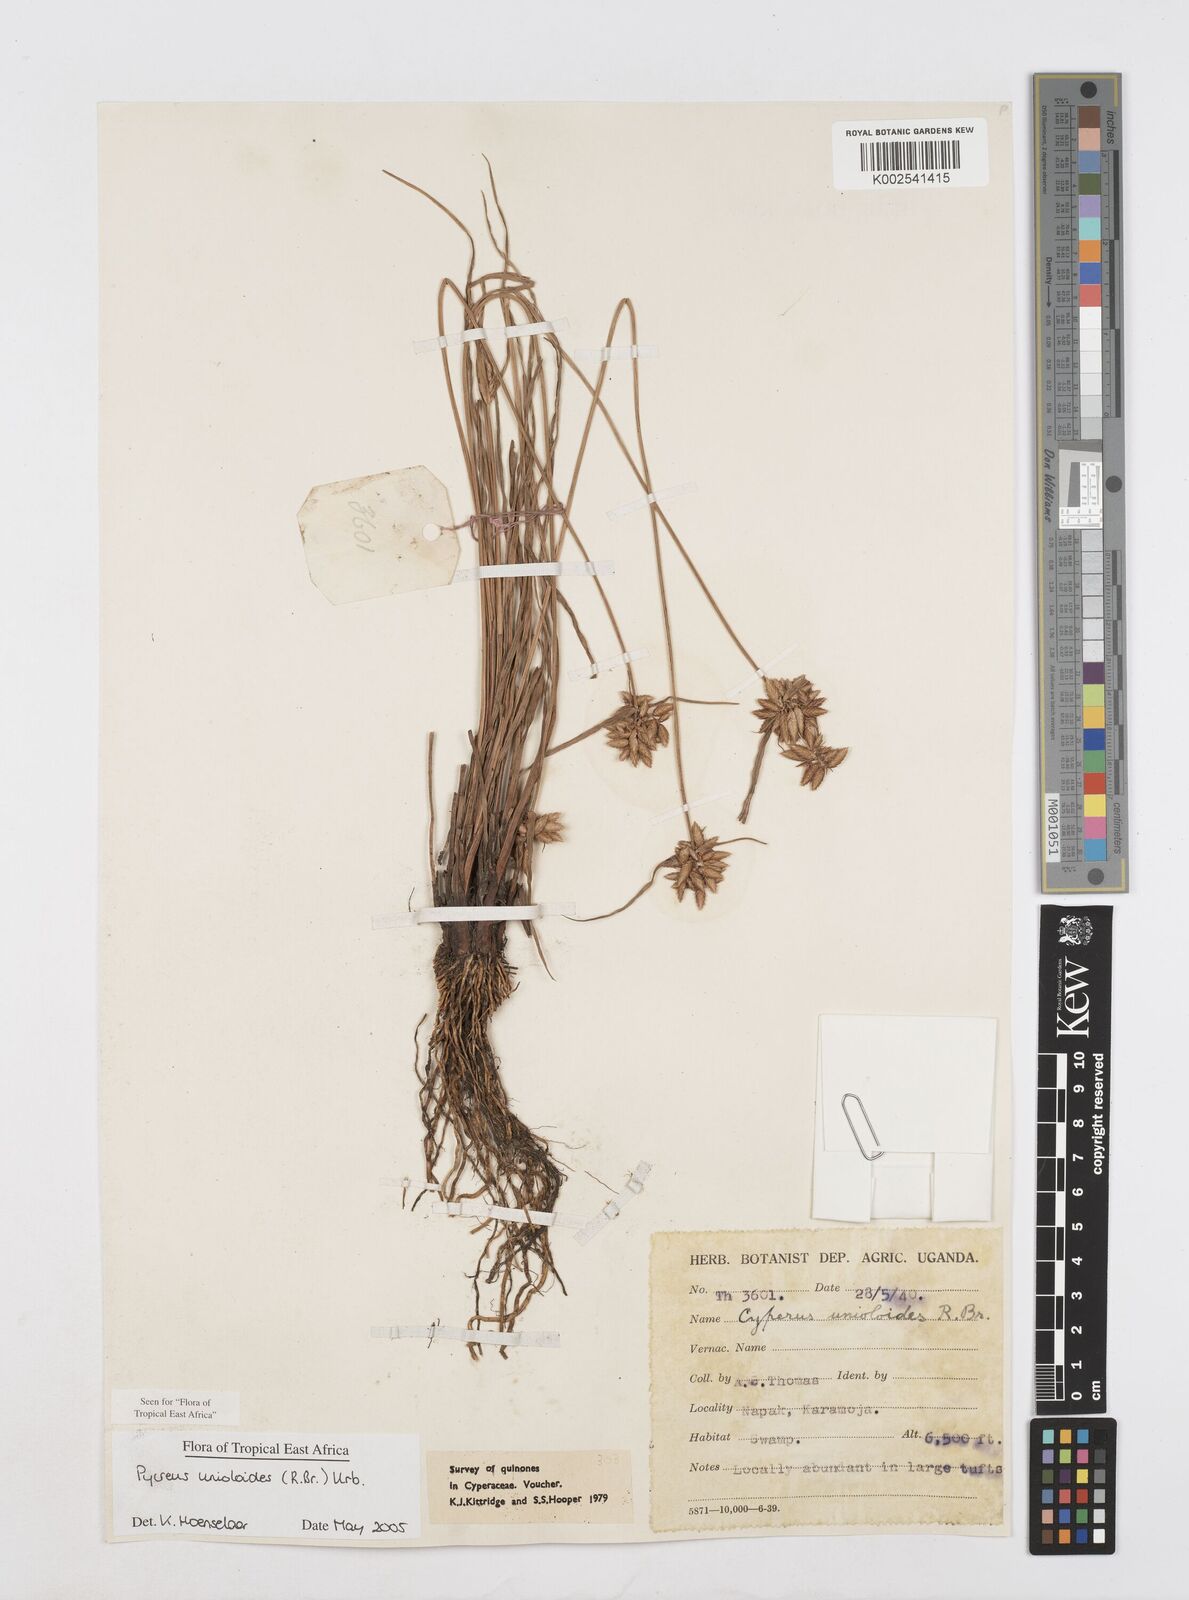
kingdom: Plantae
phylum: Tracheophyta
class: Liliopsida
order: Poales
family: Cyperaceae
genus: Cyperus
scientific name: Cyperus unioloides
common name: Uniola flatsedge
